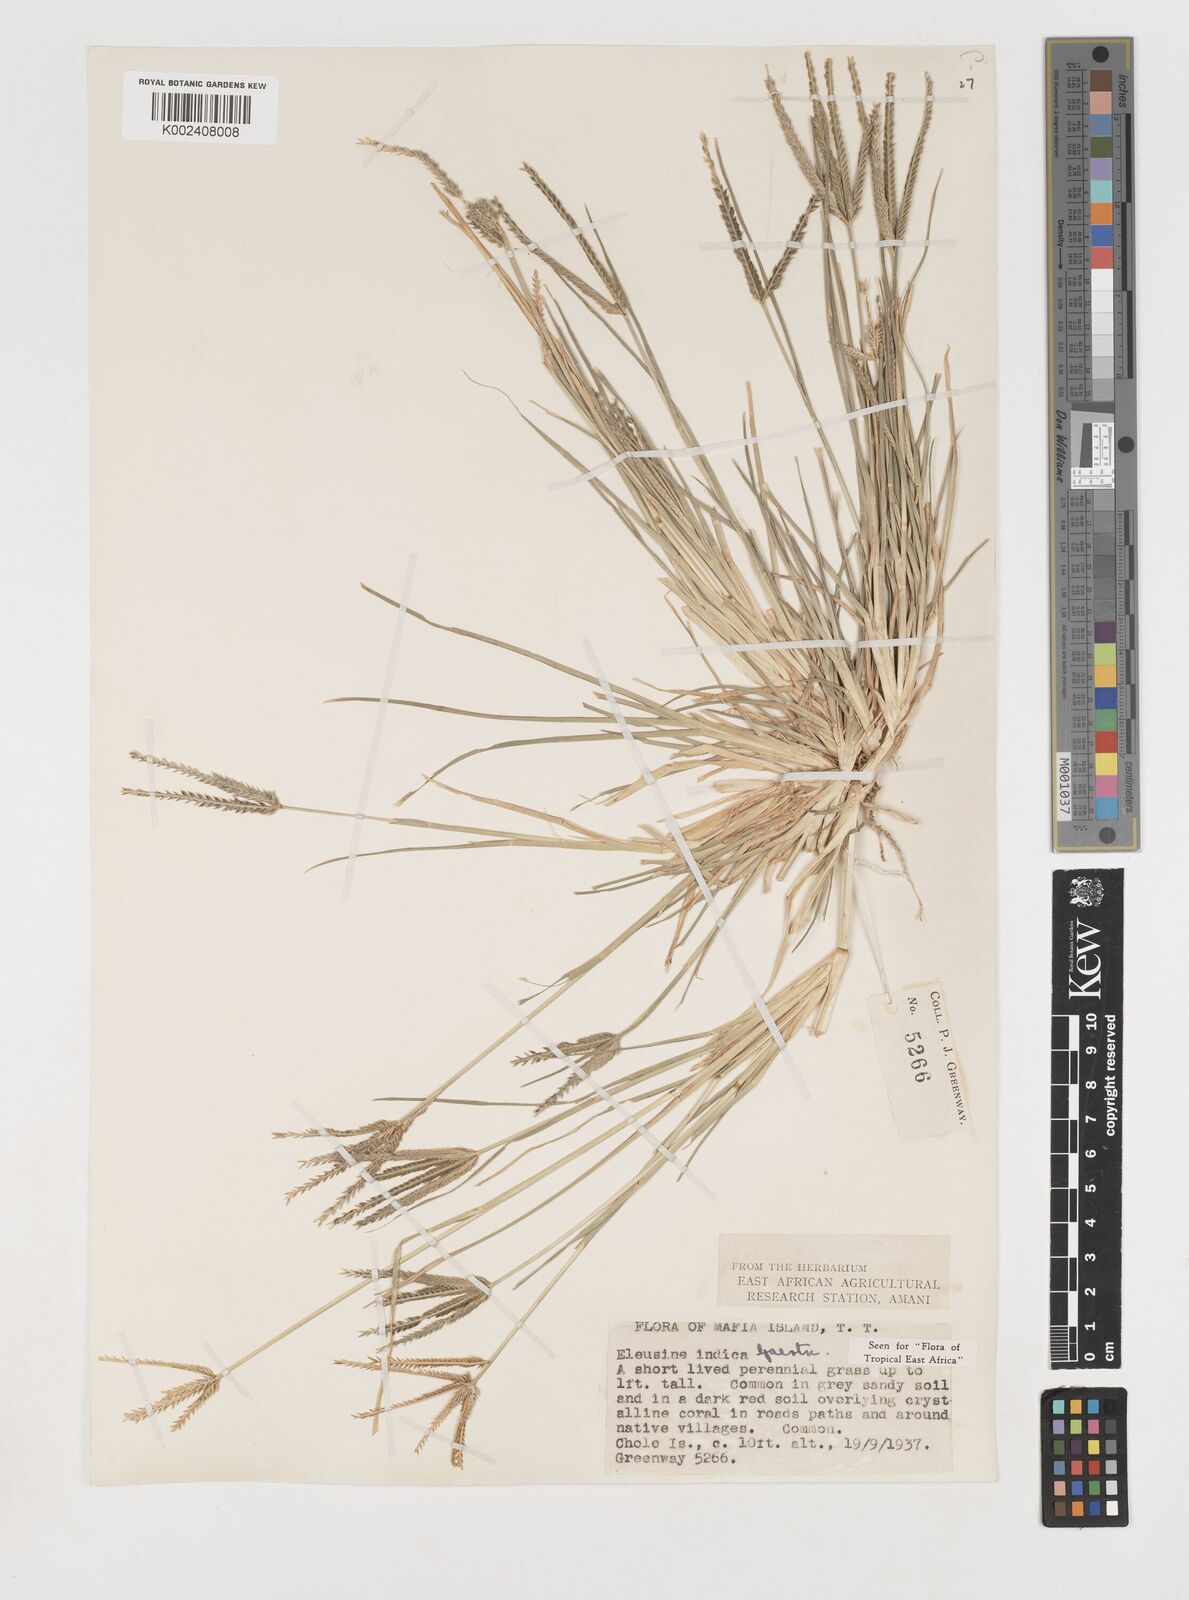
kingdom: Plantae
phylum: Tracheophyta
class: Liliopsida
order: Poales
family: Poaceae
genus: Eleusine
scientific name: Eleusine indica
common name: Yard-grass
